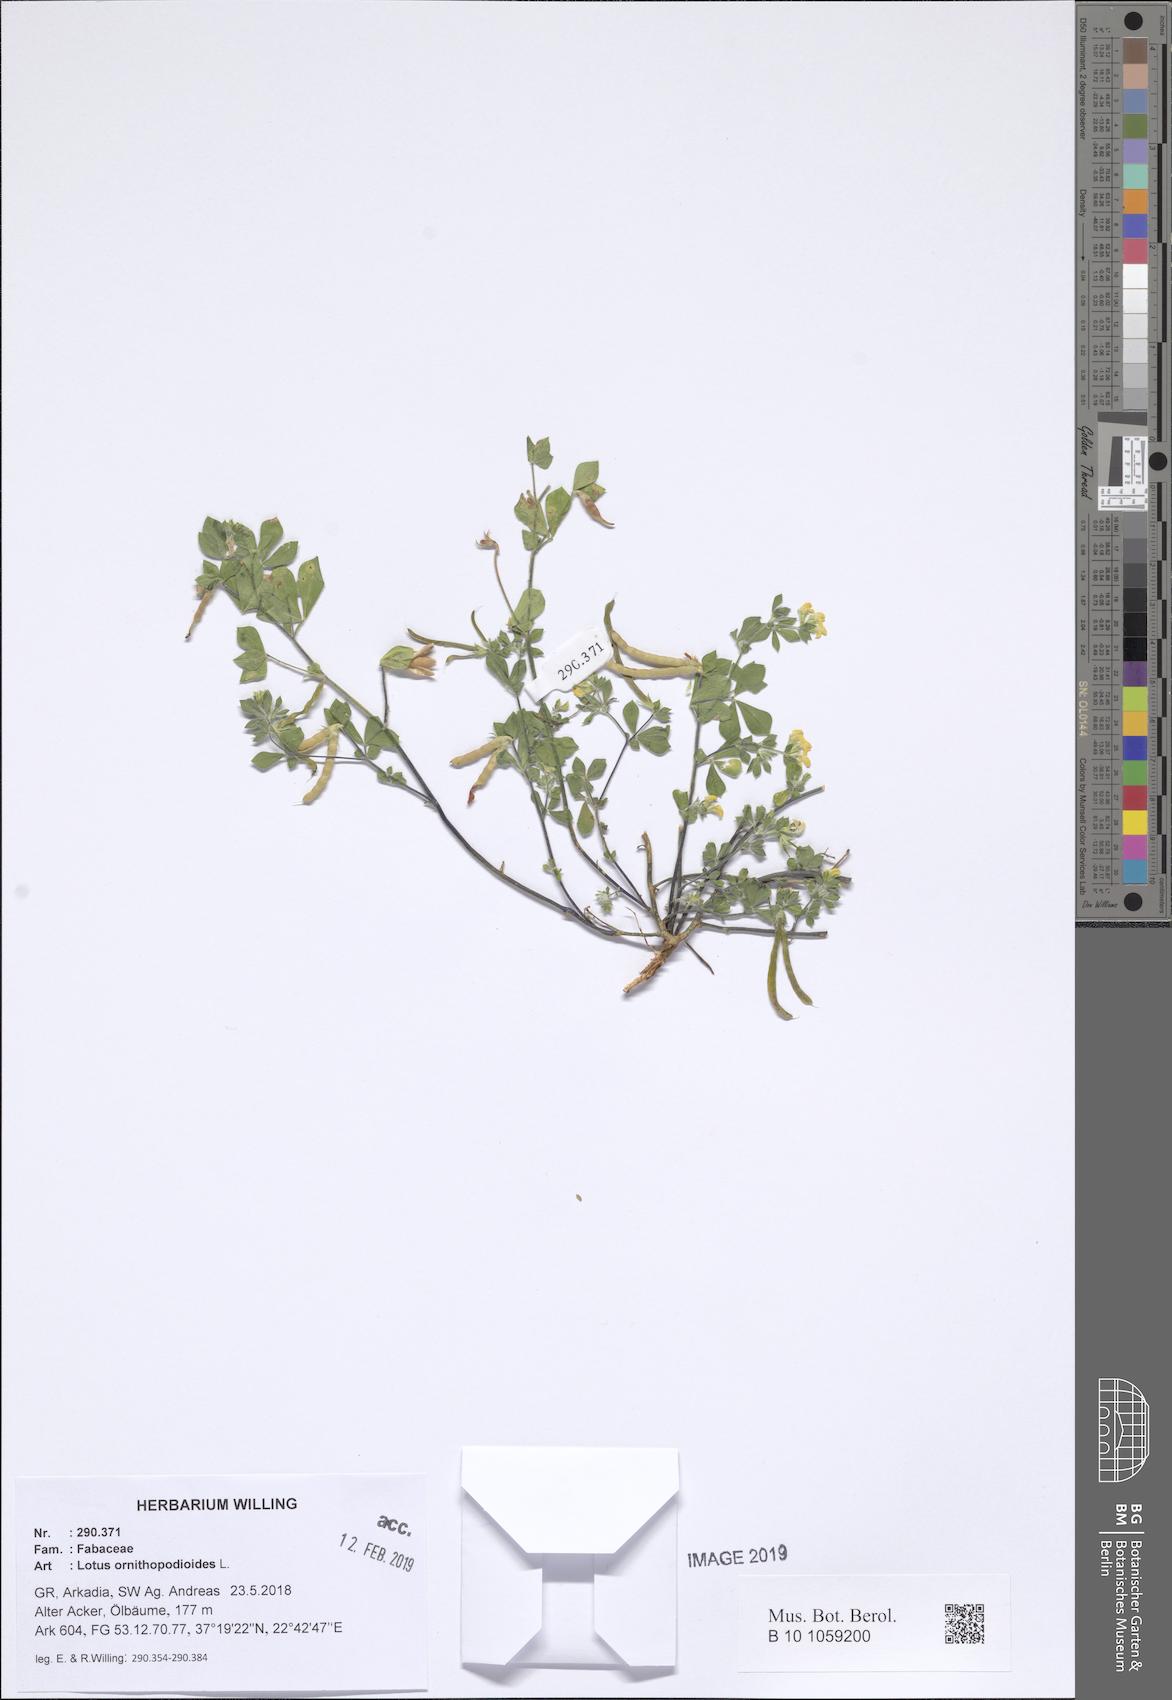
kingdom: Plantae
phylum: Tracheophyta
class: Magnoliopsida
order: Fabales
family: Fabaceae
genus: Lotus
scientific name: Lotus ornithopodioides
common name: Southern bird's-foot trefoil
